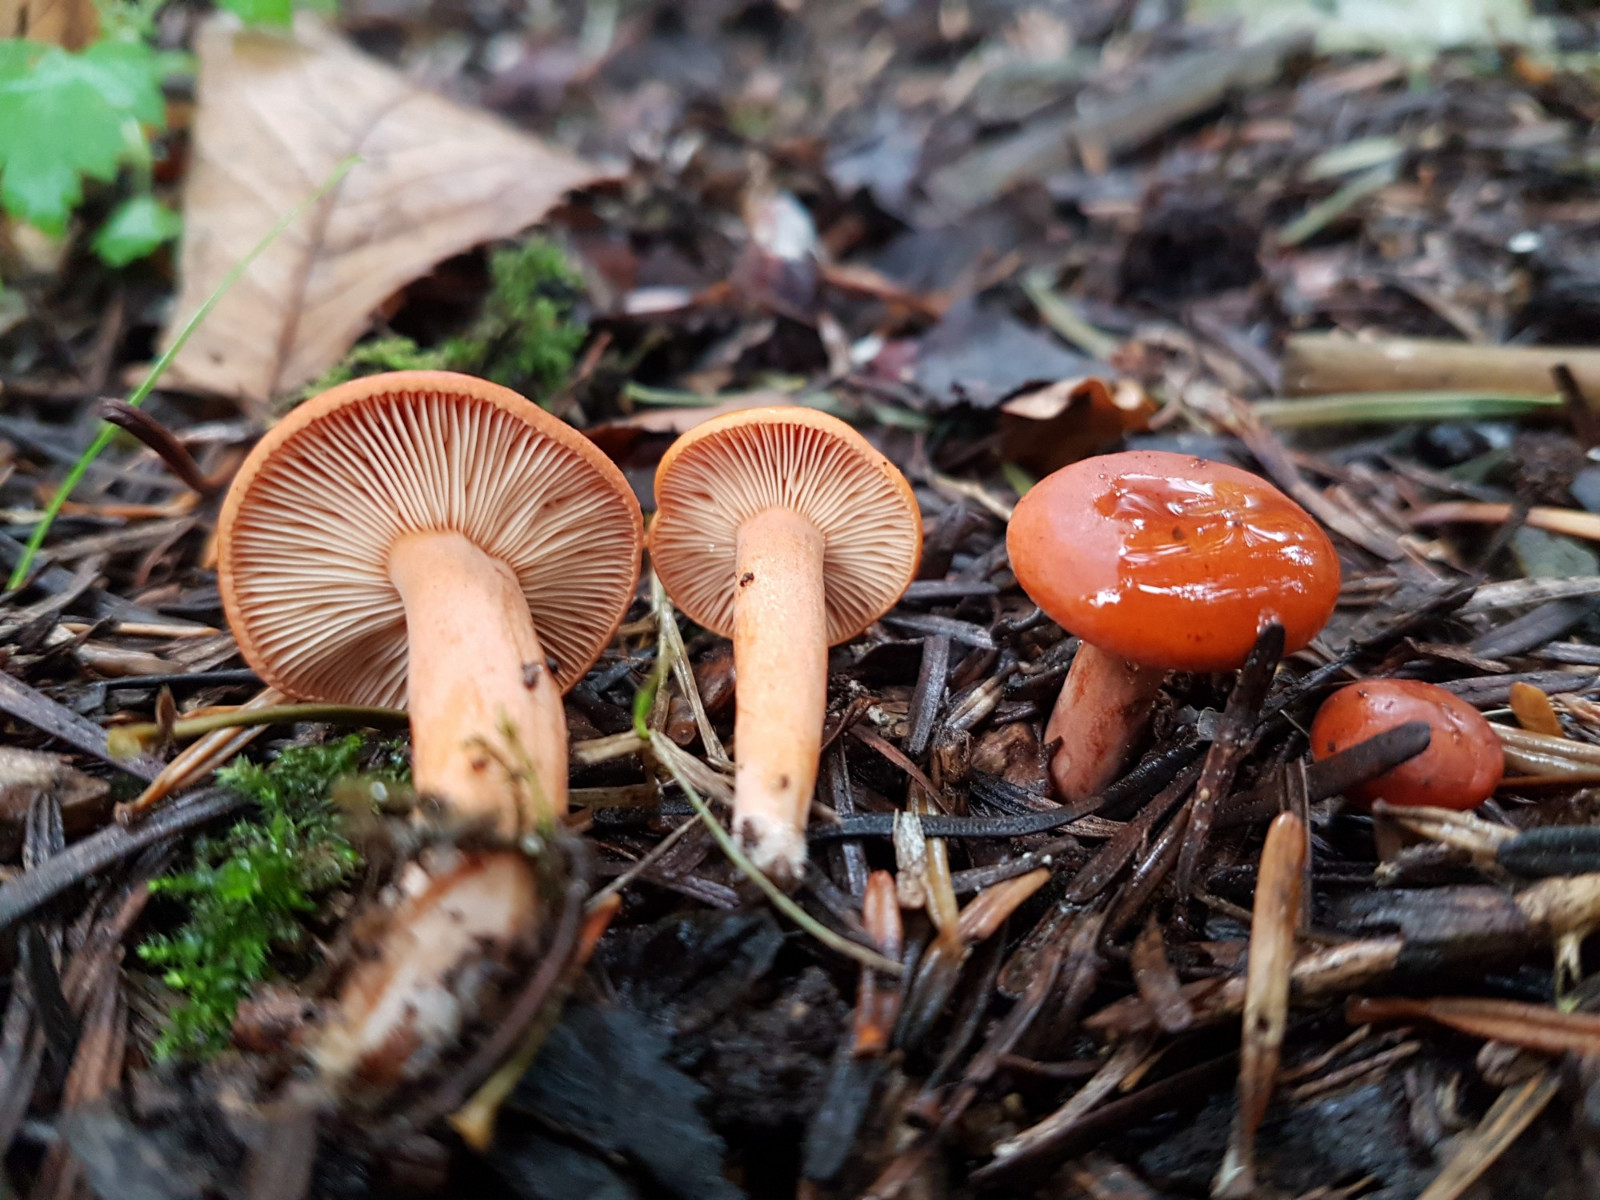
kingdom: Fungi
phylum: Basidiomycota
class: Agaricomycetes
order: Russulales
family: Russulaceae
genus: Lactarius
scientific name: Lactarius aurantiacus
